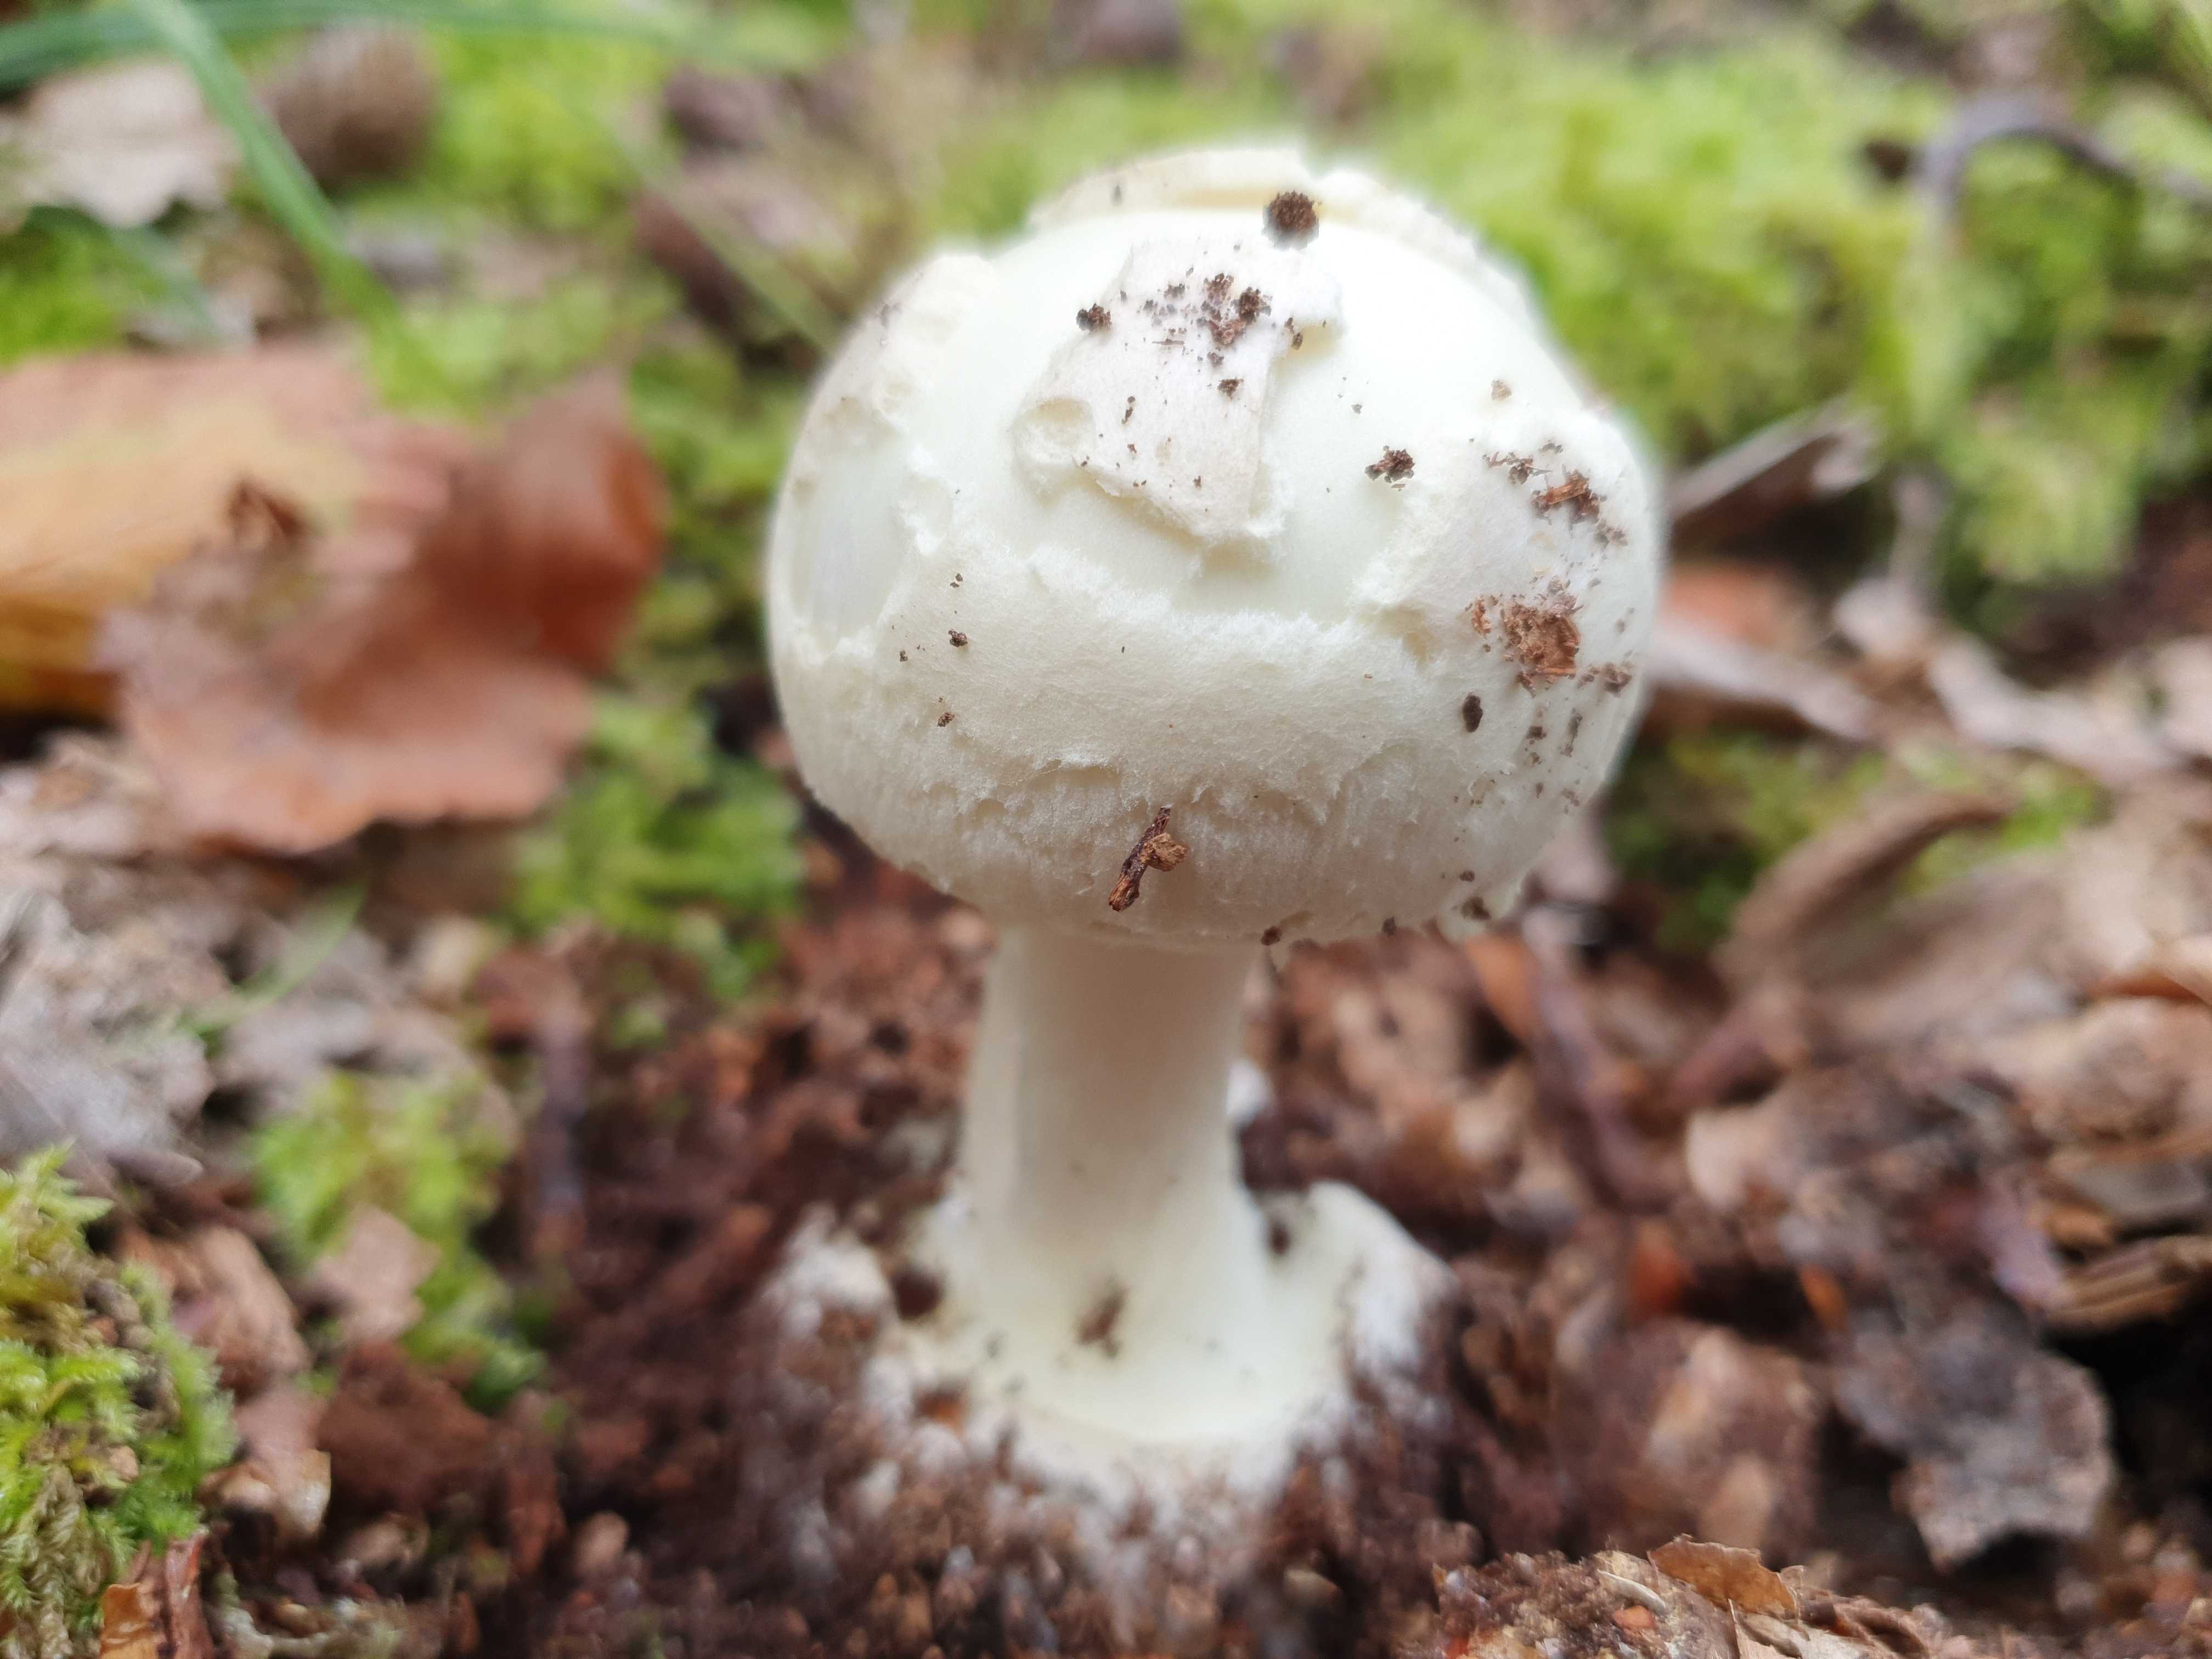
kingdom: Fungi
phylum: Basidiomycota
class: Agaricomycetes
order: Agaricales
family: Amanitaceae
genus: Amanita
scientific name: Amanita citrina
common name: kugleknoldet fluesvamp
